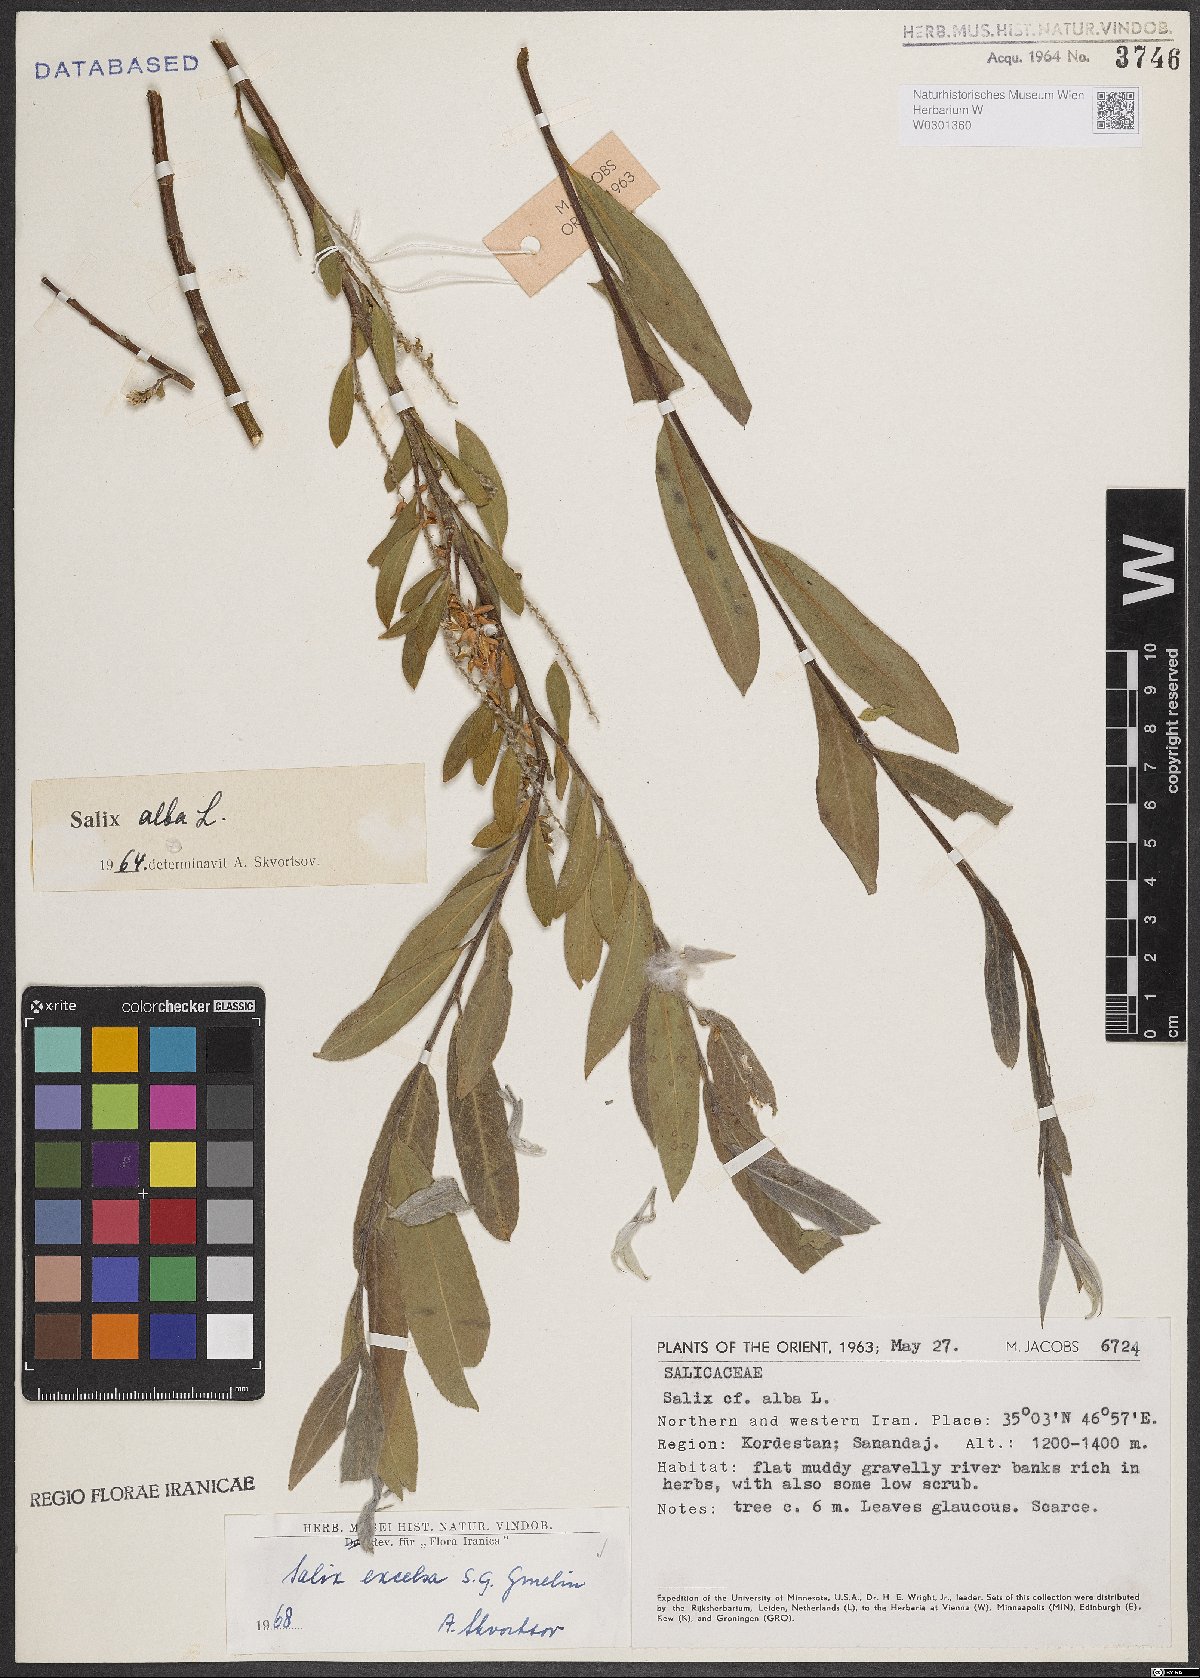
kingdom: Plantae
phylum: Tracheophyta
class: Magnoliopsida
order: Malpighiales
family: Salicaceae
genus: Salix
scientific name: Salix excelsa
